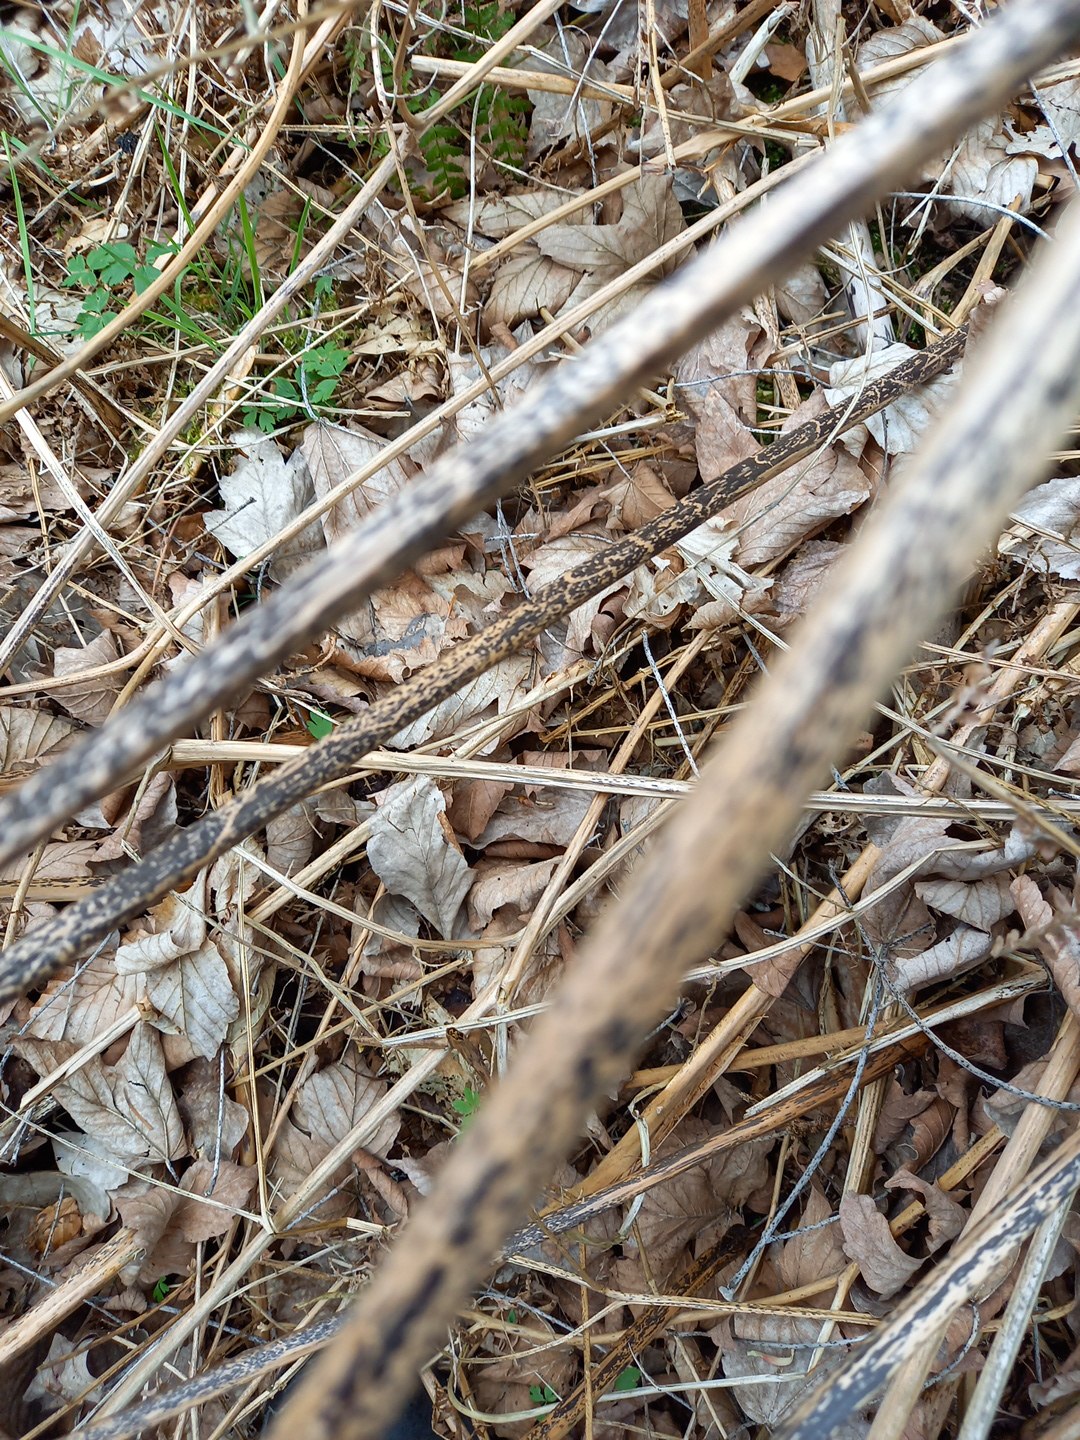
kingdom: Fungi
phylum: Ascomycota
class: Dothideomycetes
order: Pleosporales
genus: Rhopographus
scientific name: Rhopographus filicinus
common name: Bracken map
